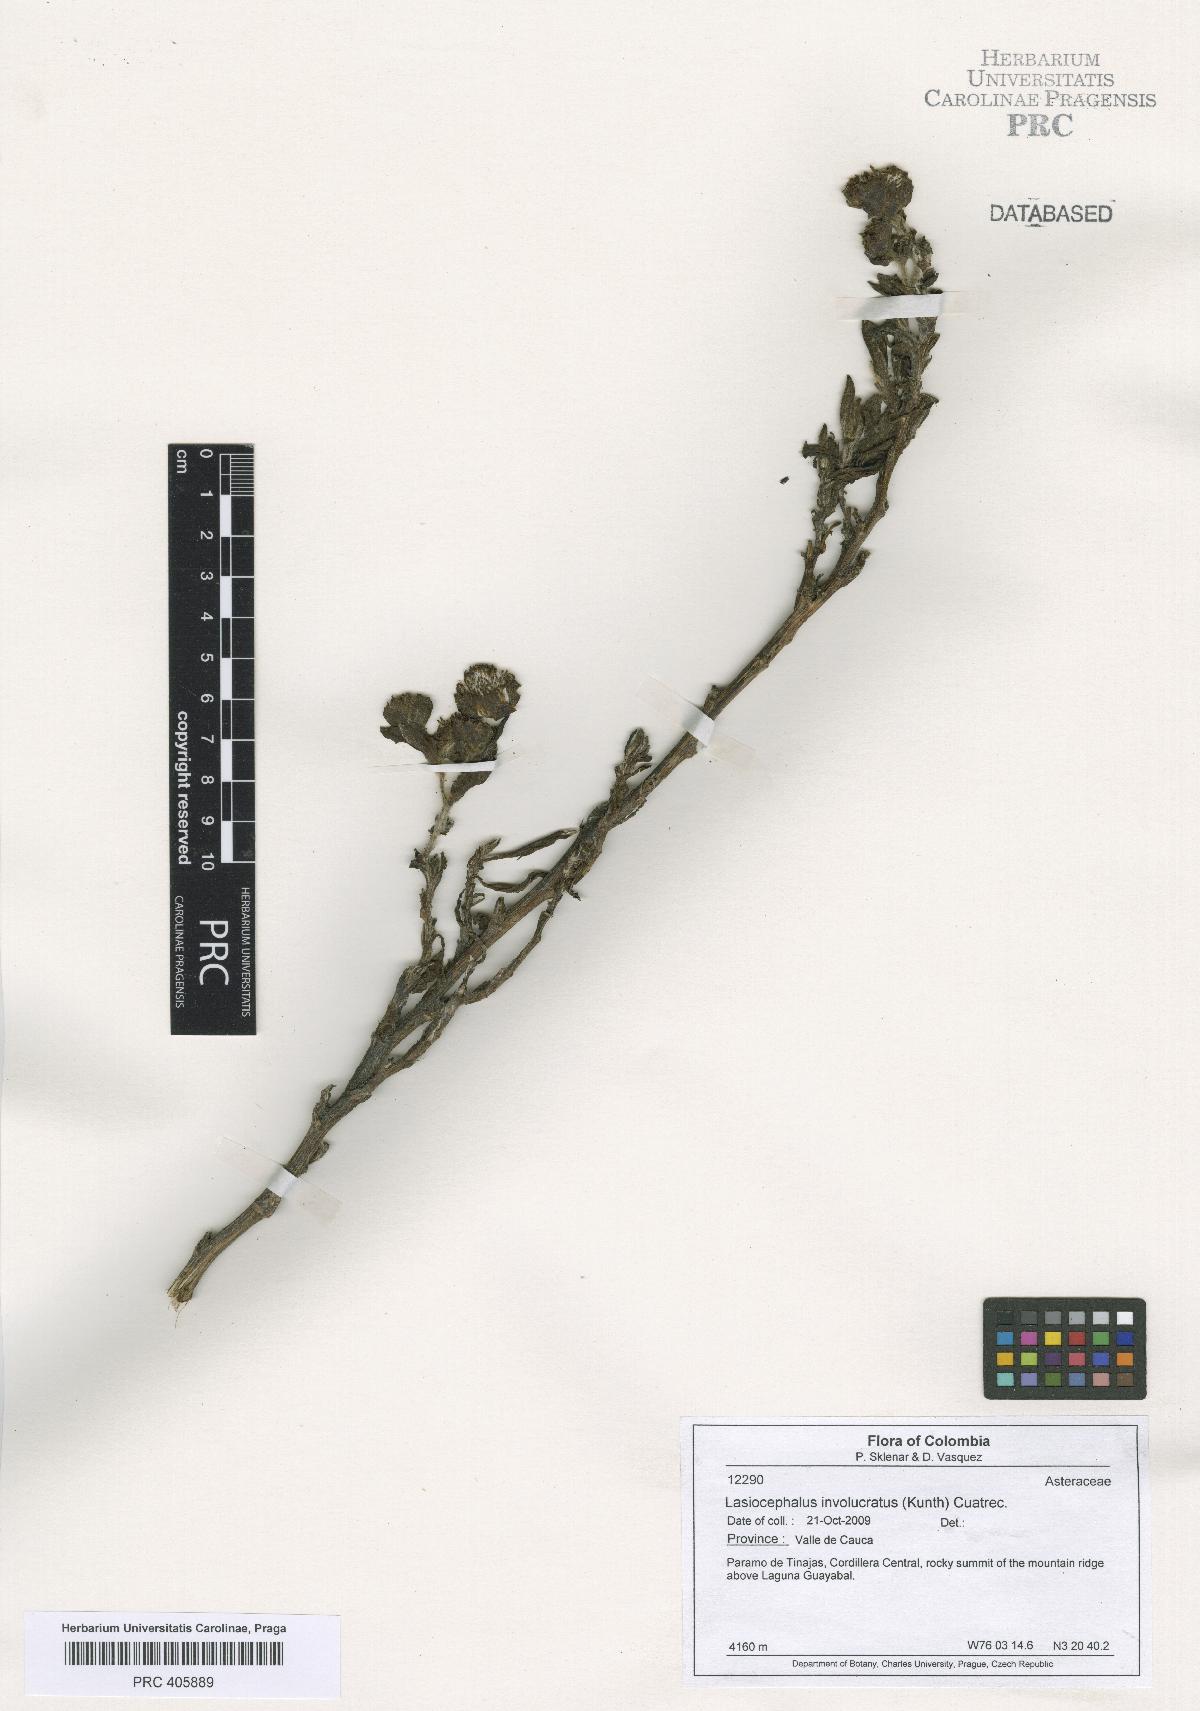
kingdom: Plantae
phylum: Tracheophyta
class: Magnoliopsida
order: Asterales
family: Asteraceae
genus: Aetheolaena
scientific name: Aetheolaena involucrata
